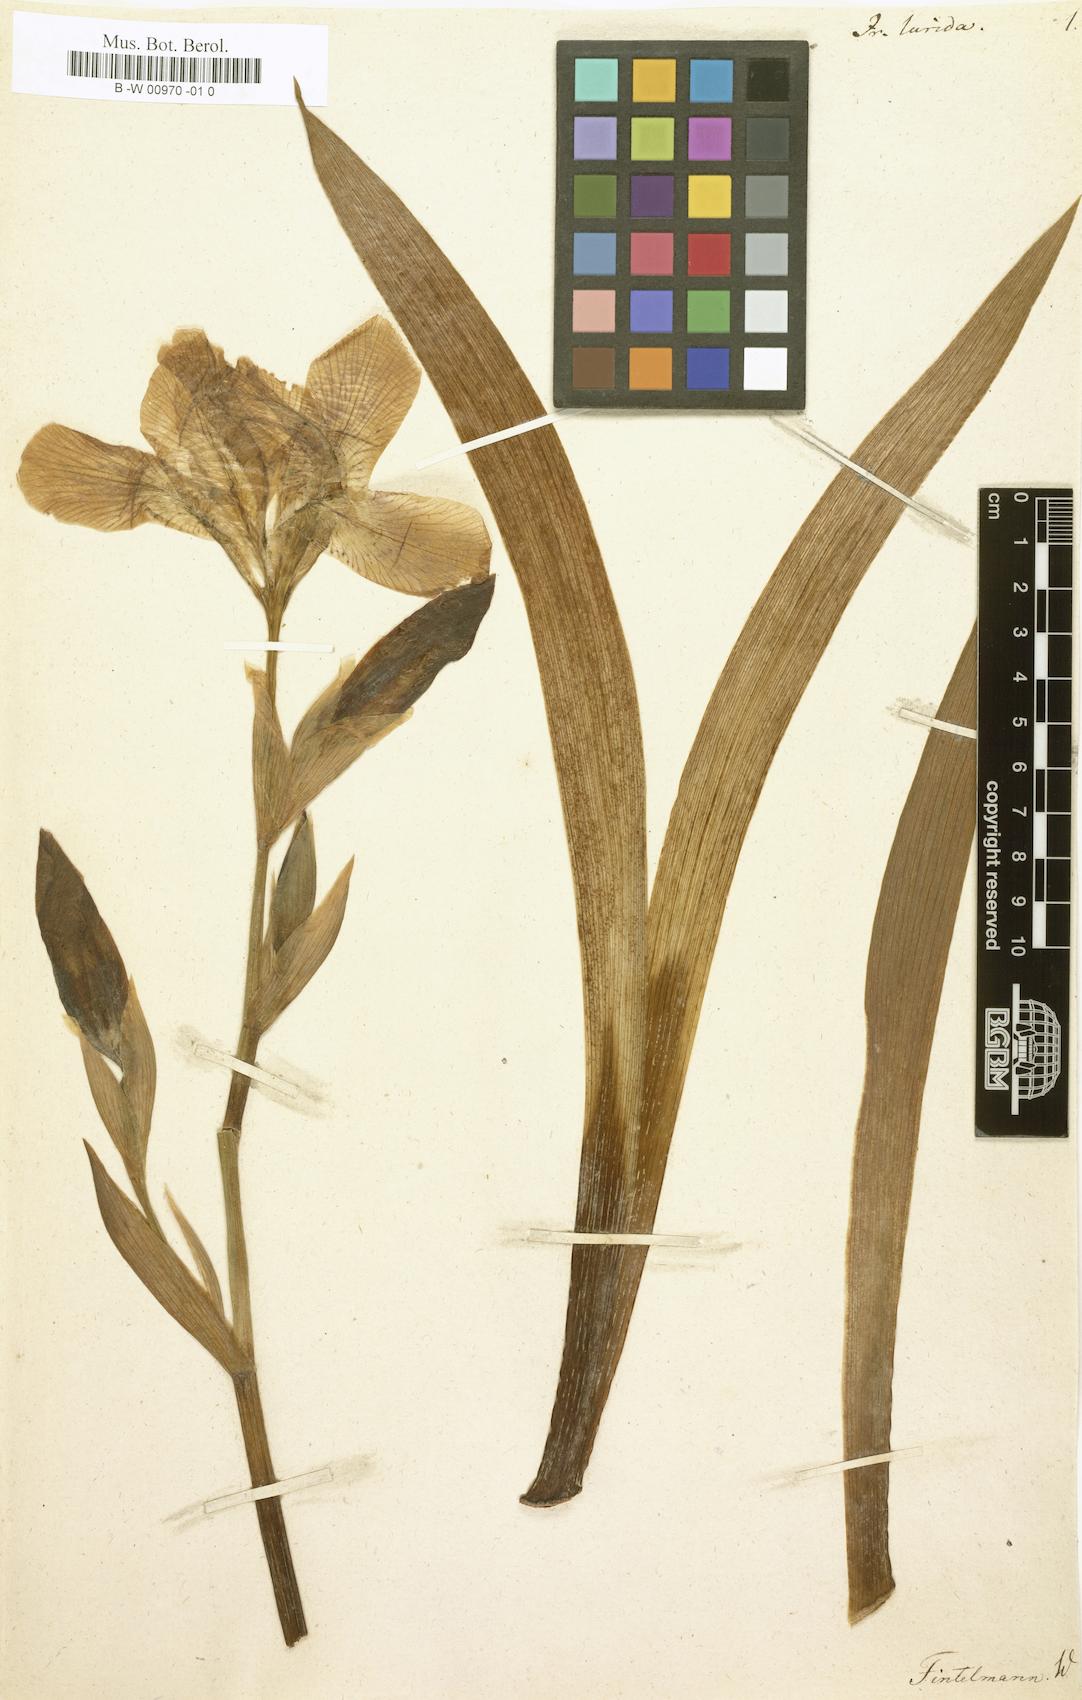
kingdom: Plantae
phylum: Tracheophyta
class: Liliopsida
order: Asparagales
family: Iridaceae
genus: Iris
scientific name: Iris lurida
